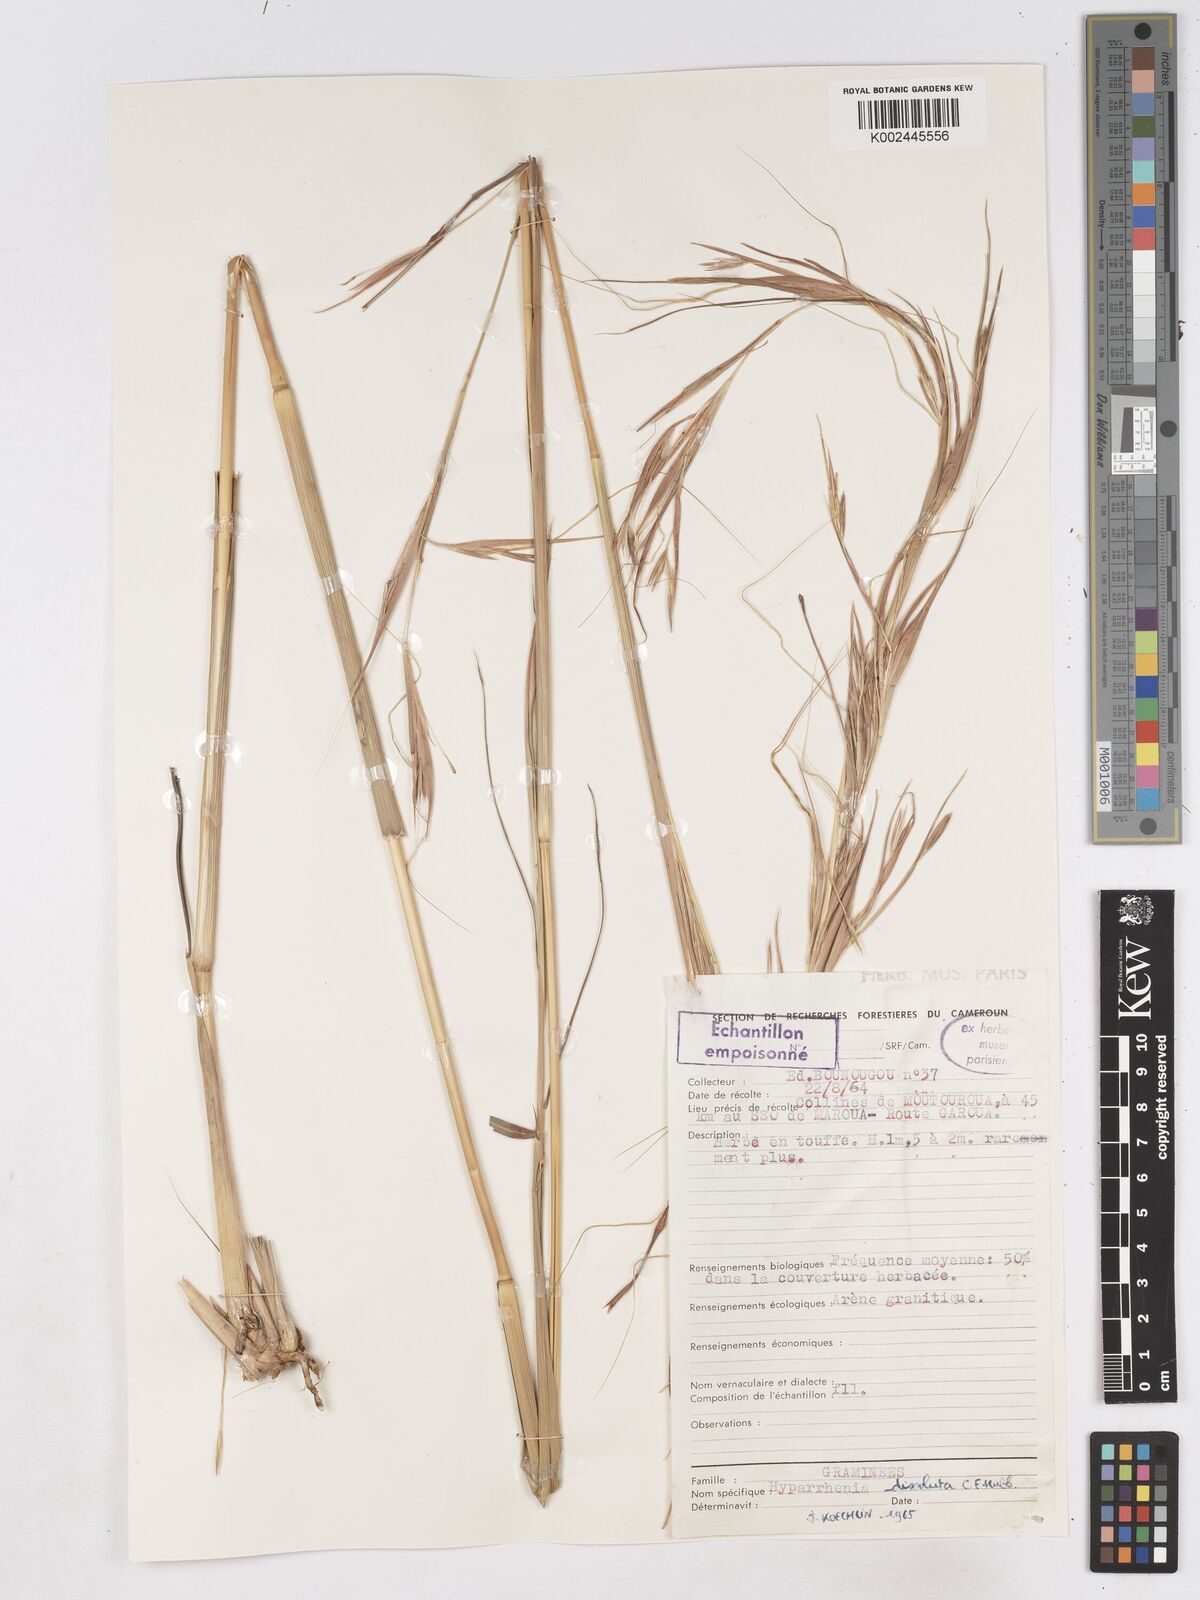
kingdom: Plantae
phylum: Tracheophyta
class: Liliopsida
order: Poales
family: Poaceae
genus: Hyperthelia
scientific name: Hyperthelia dissoluta
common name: Yellow thatching grass
